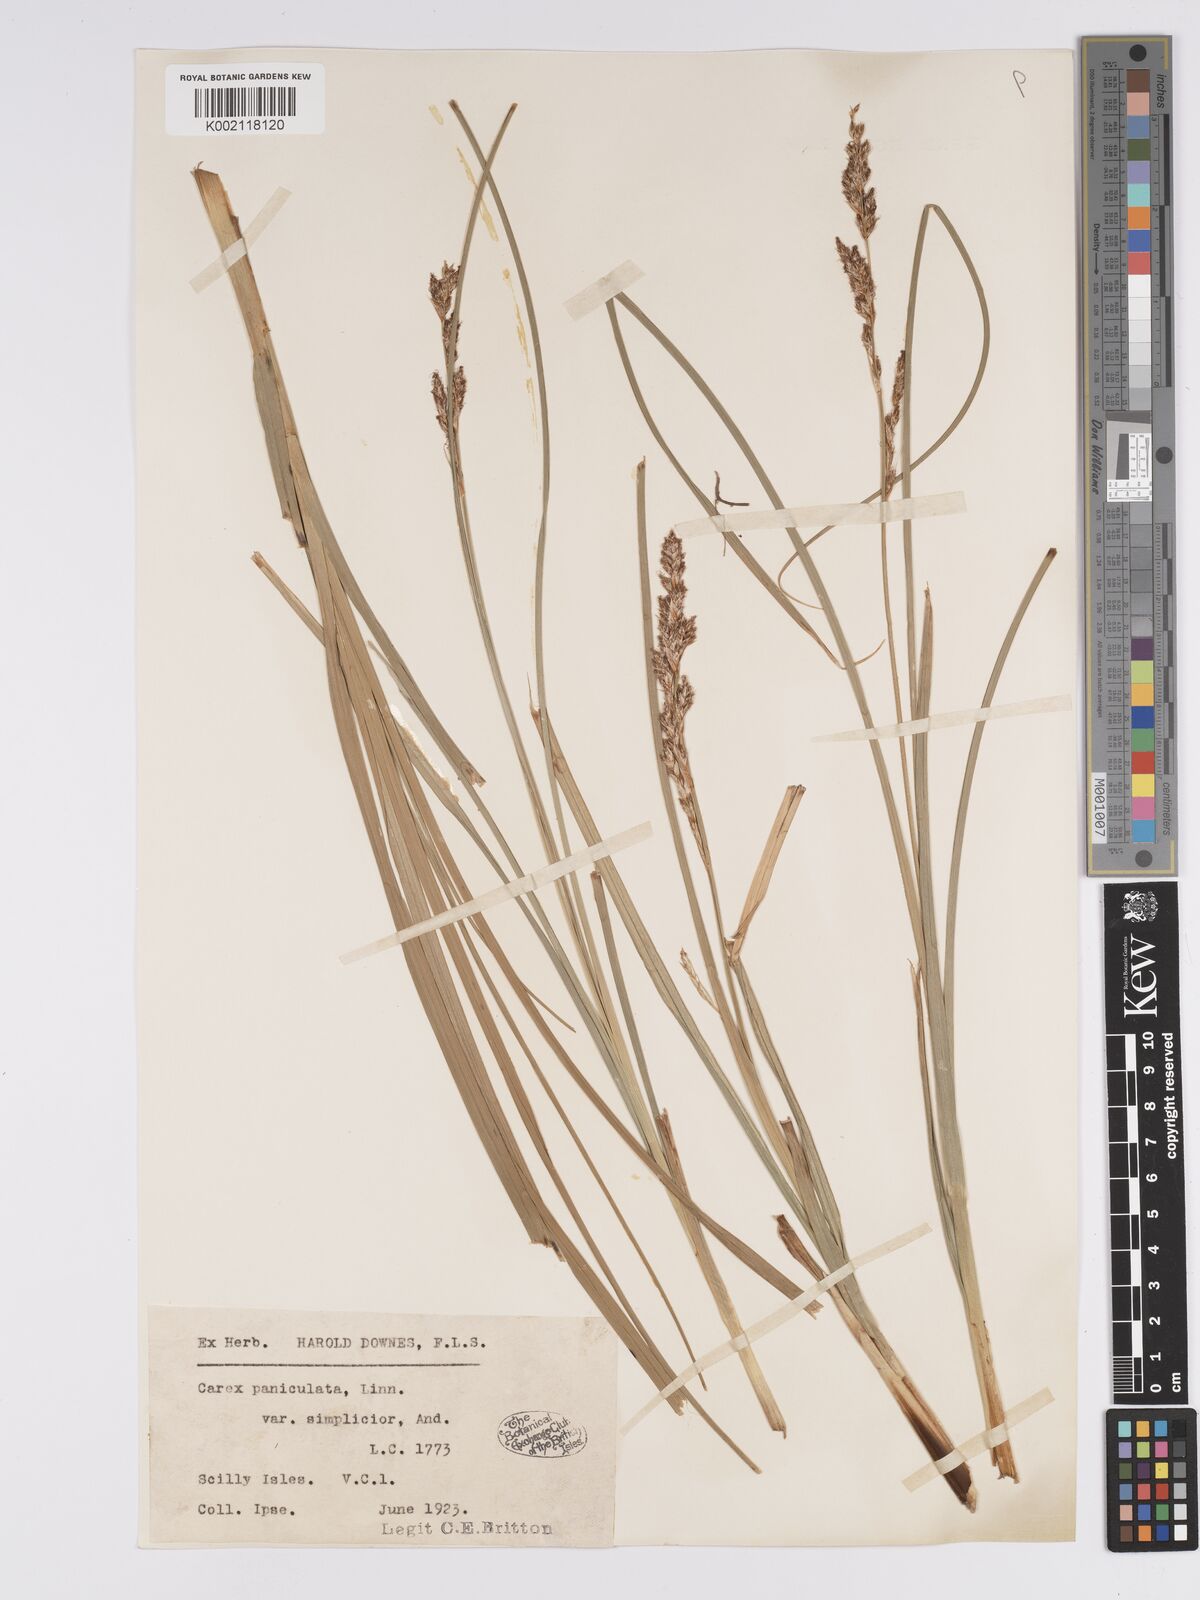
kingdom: Plantae
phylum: Tracheophyta
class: Liliopsida
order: Poales
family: Cyperaceae
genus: Carex
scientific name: Carex paniculata
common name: Greater tussock-sedge
